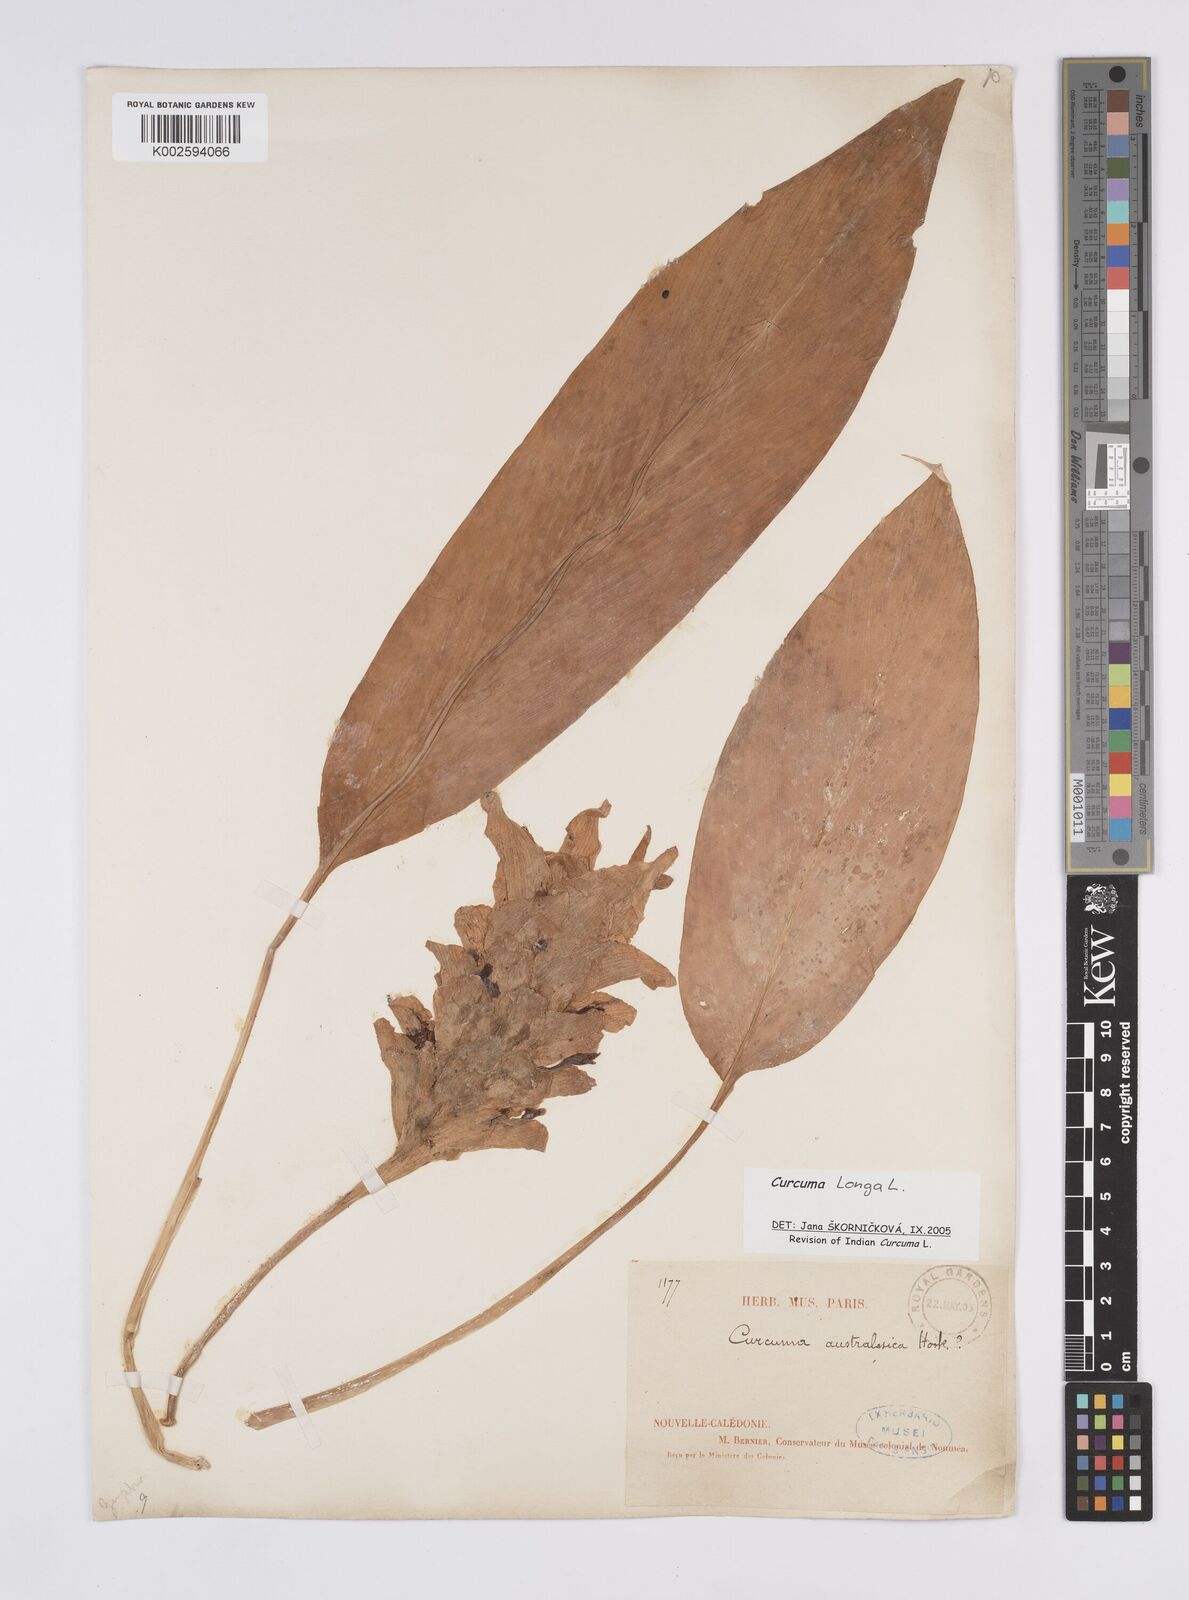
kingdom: Plantae
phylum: Tracheophyta
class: Liliopsida
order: Zingiberales
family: Zingiberaceae
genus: Curcuma
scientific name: Curcuma longa
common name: Turmeric
